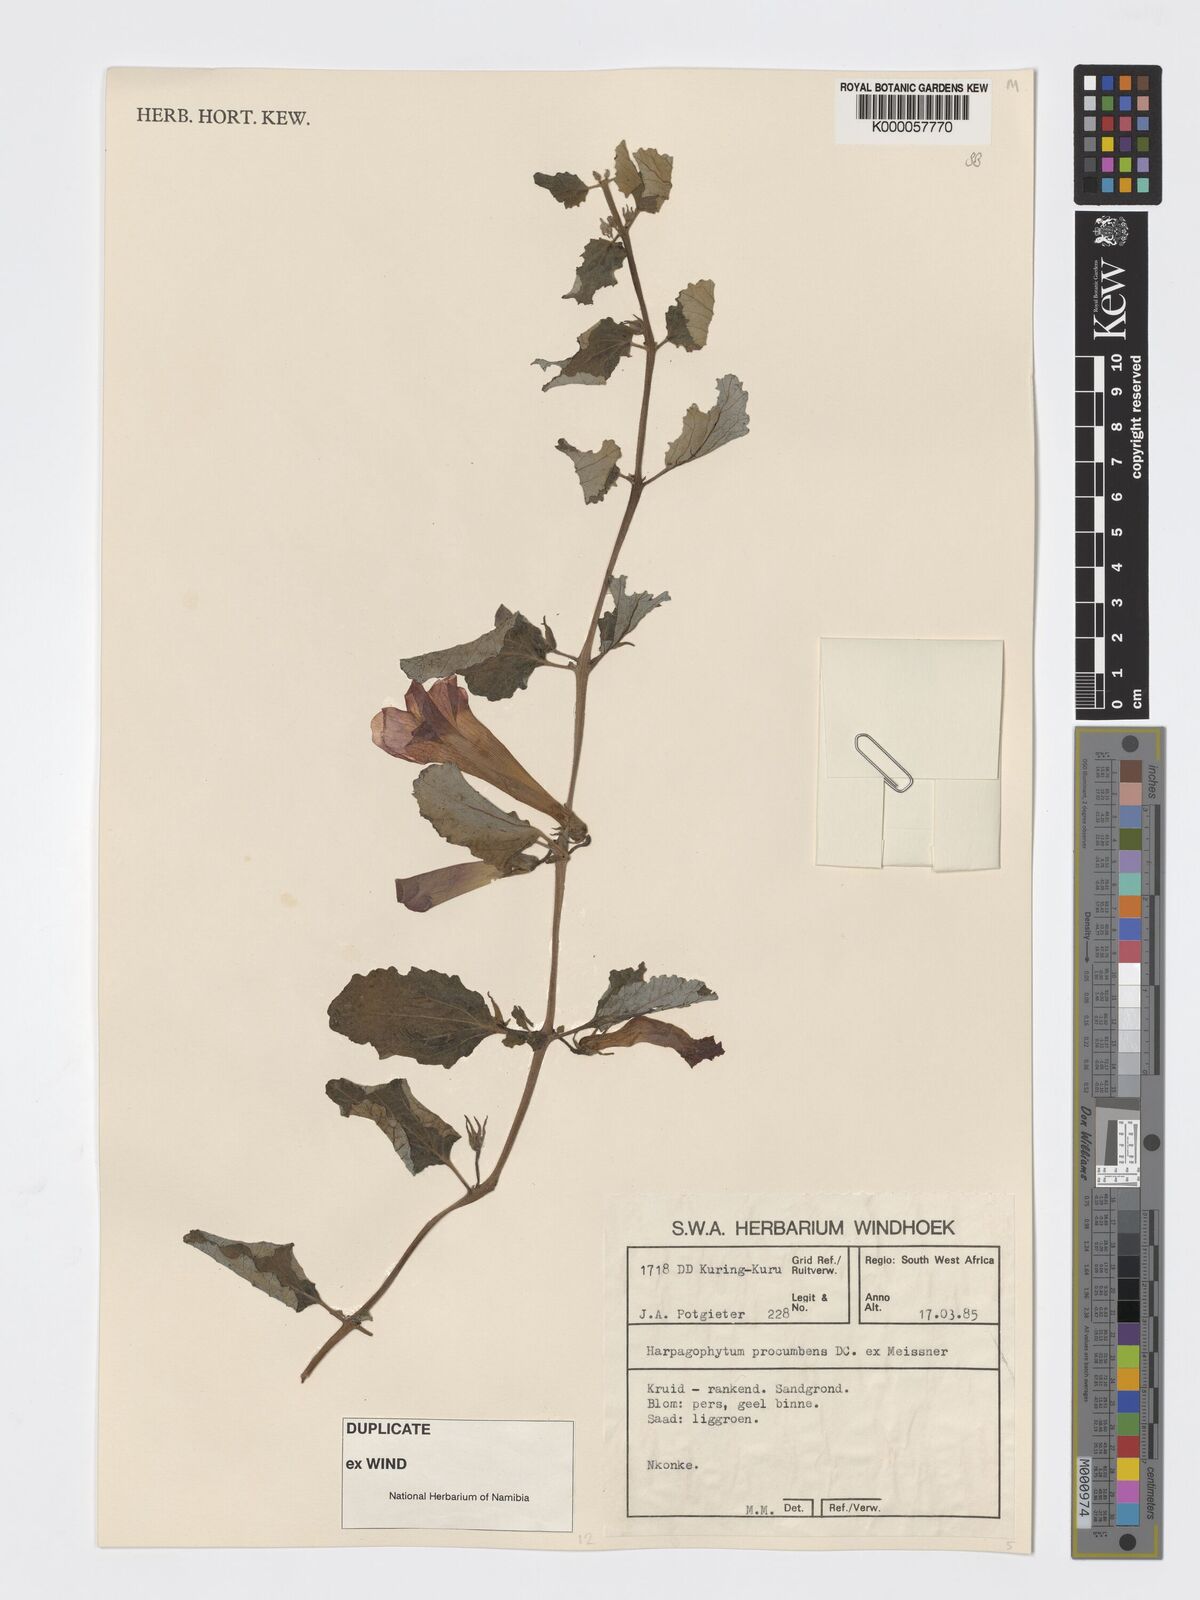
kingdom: Plantae
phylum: Tracheophyta
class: Magnoliopsida
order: Lamiales
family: Pedaliaceae
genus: Harpagophytum
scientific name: Harpagophytum procumbens
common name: Grappleplant
